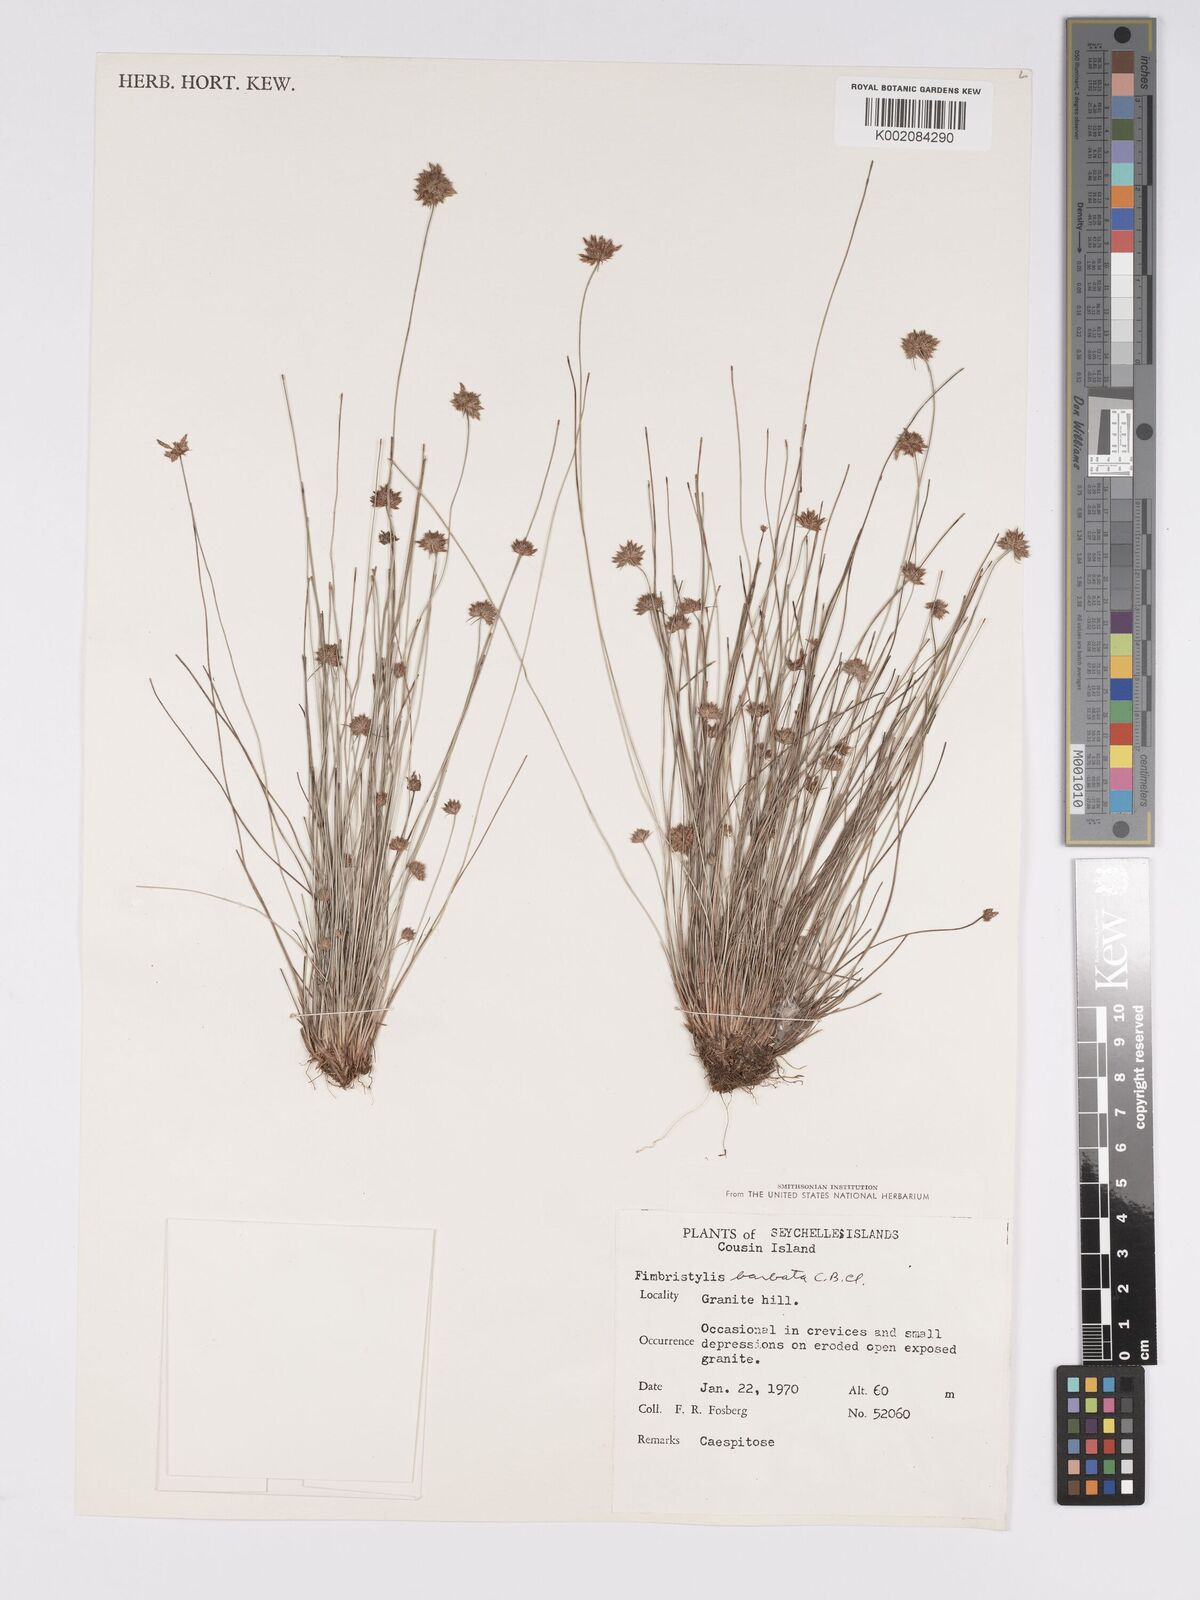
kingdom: Plantae
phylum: Tracheophyta
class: Liliopsida
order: Poales
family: Cyperaceae
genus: Bulbostylis
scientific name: Bulbostylis barbata
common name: Watergrass
